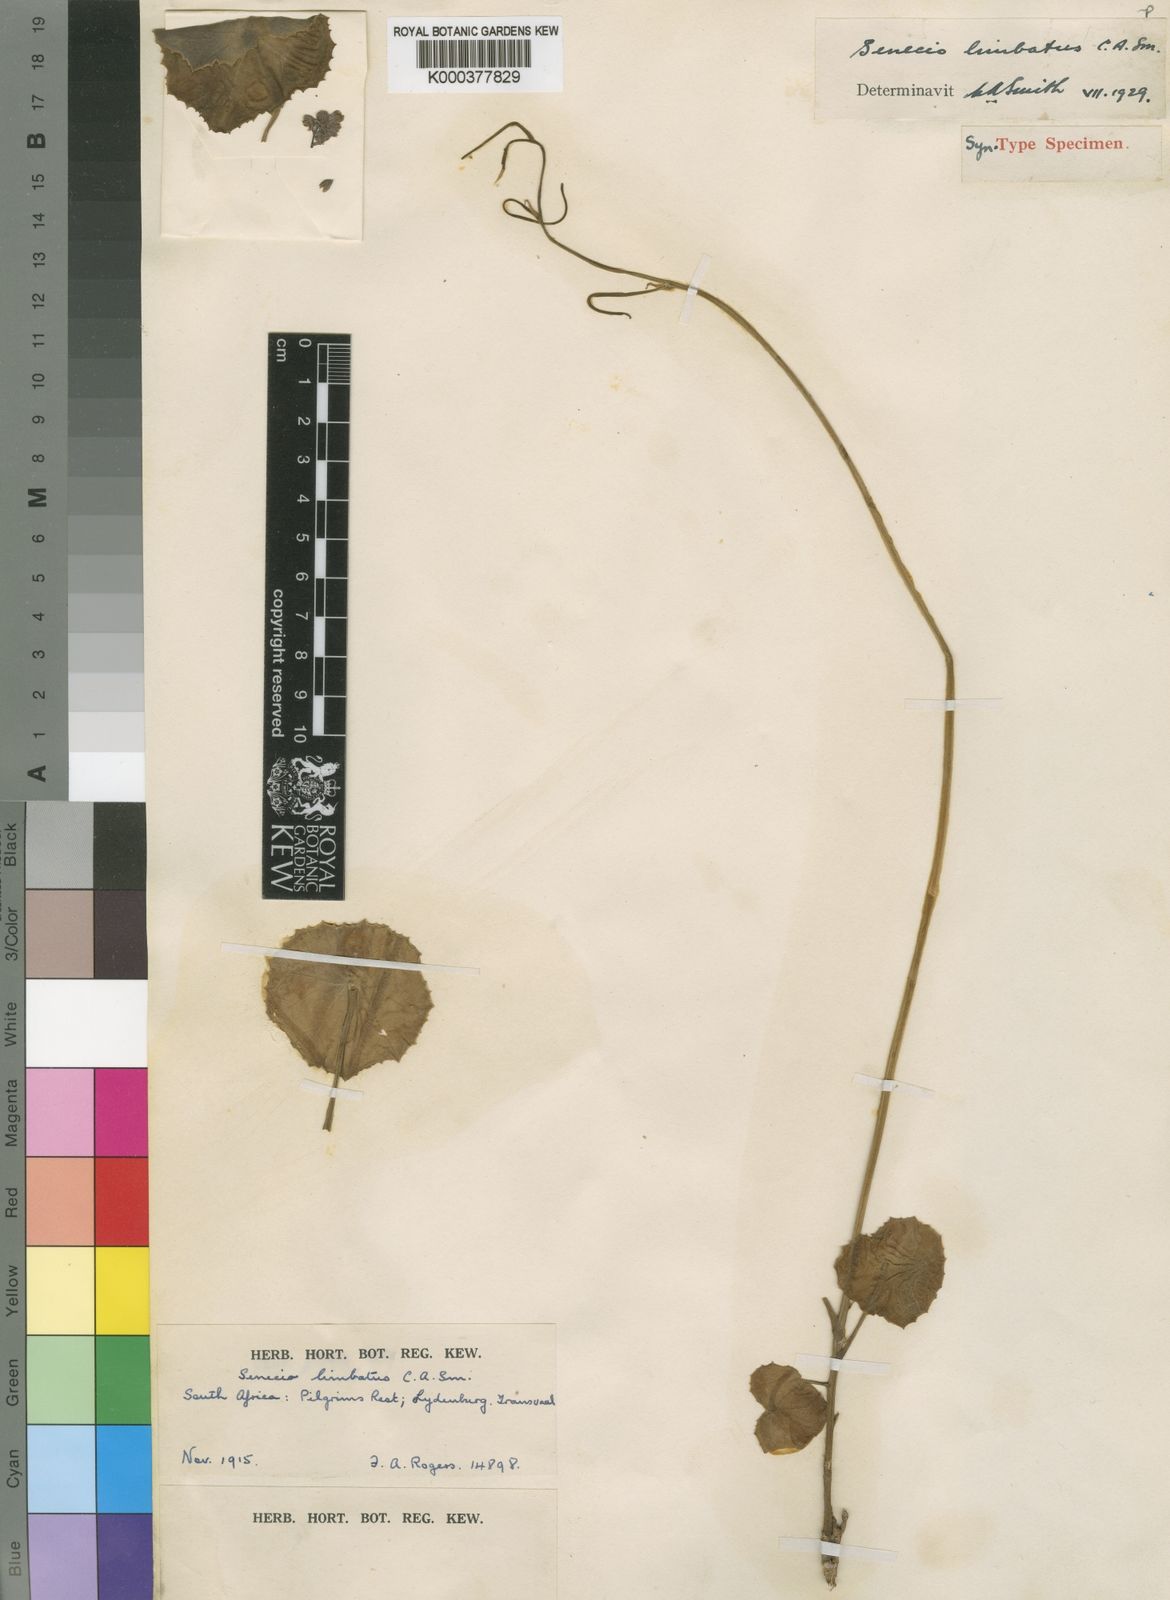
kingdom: Plantae
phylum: Tracheophyta
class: Magnoliopsida
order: Asterales
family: Asteraceae
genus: Senecio
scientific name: Senecio
